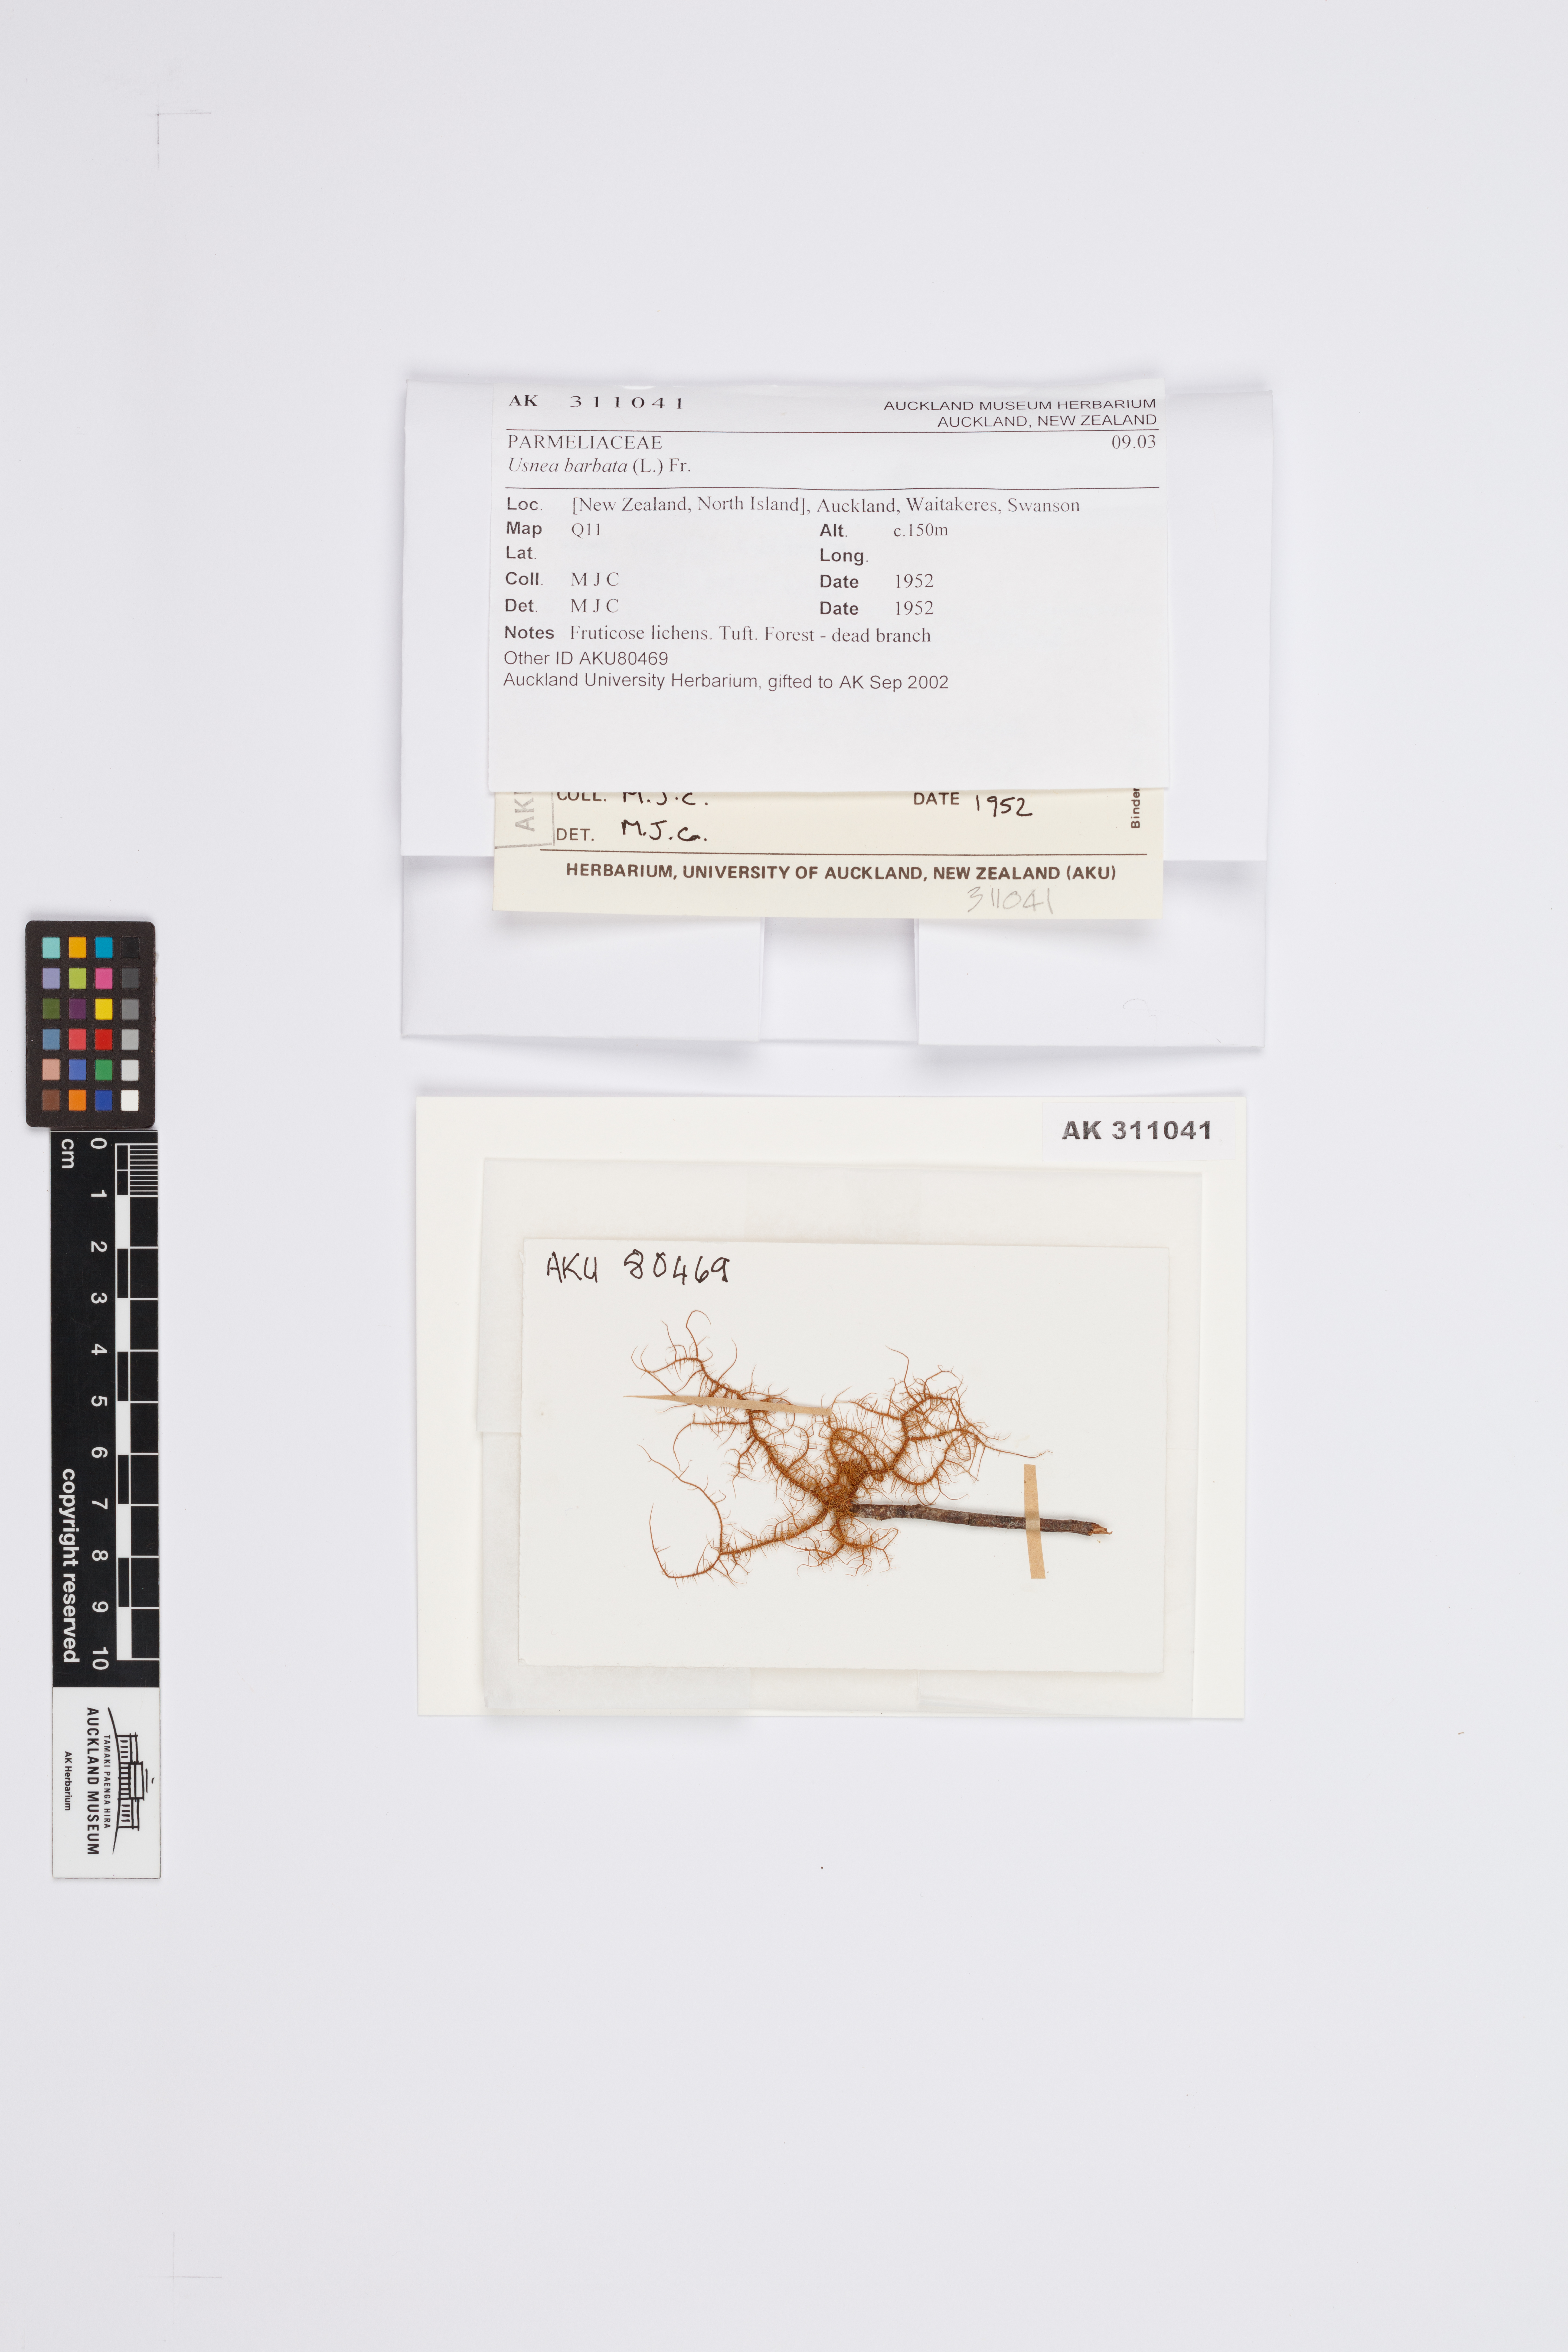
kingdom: Fungi
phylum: Ascomycota
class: Lecanoromycetes
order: Lecanorales
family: Parmeliaceae
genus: Usnea
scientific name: Usnea barbata
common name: Old man's beard lichen
